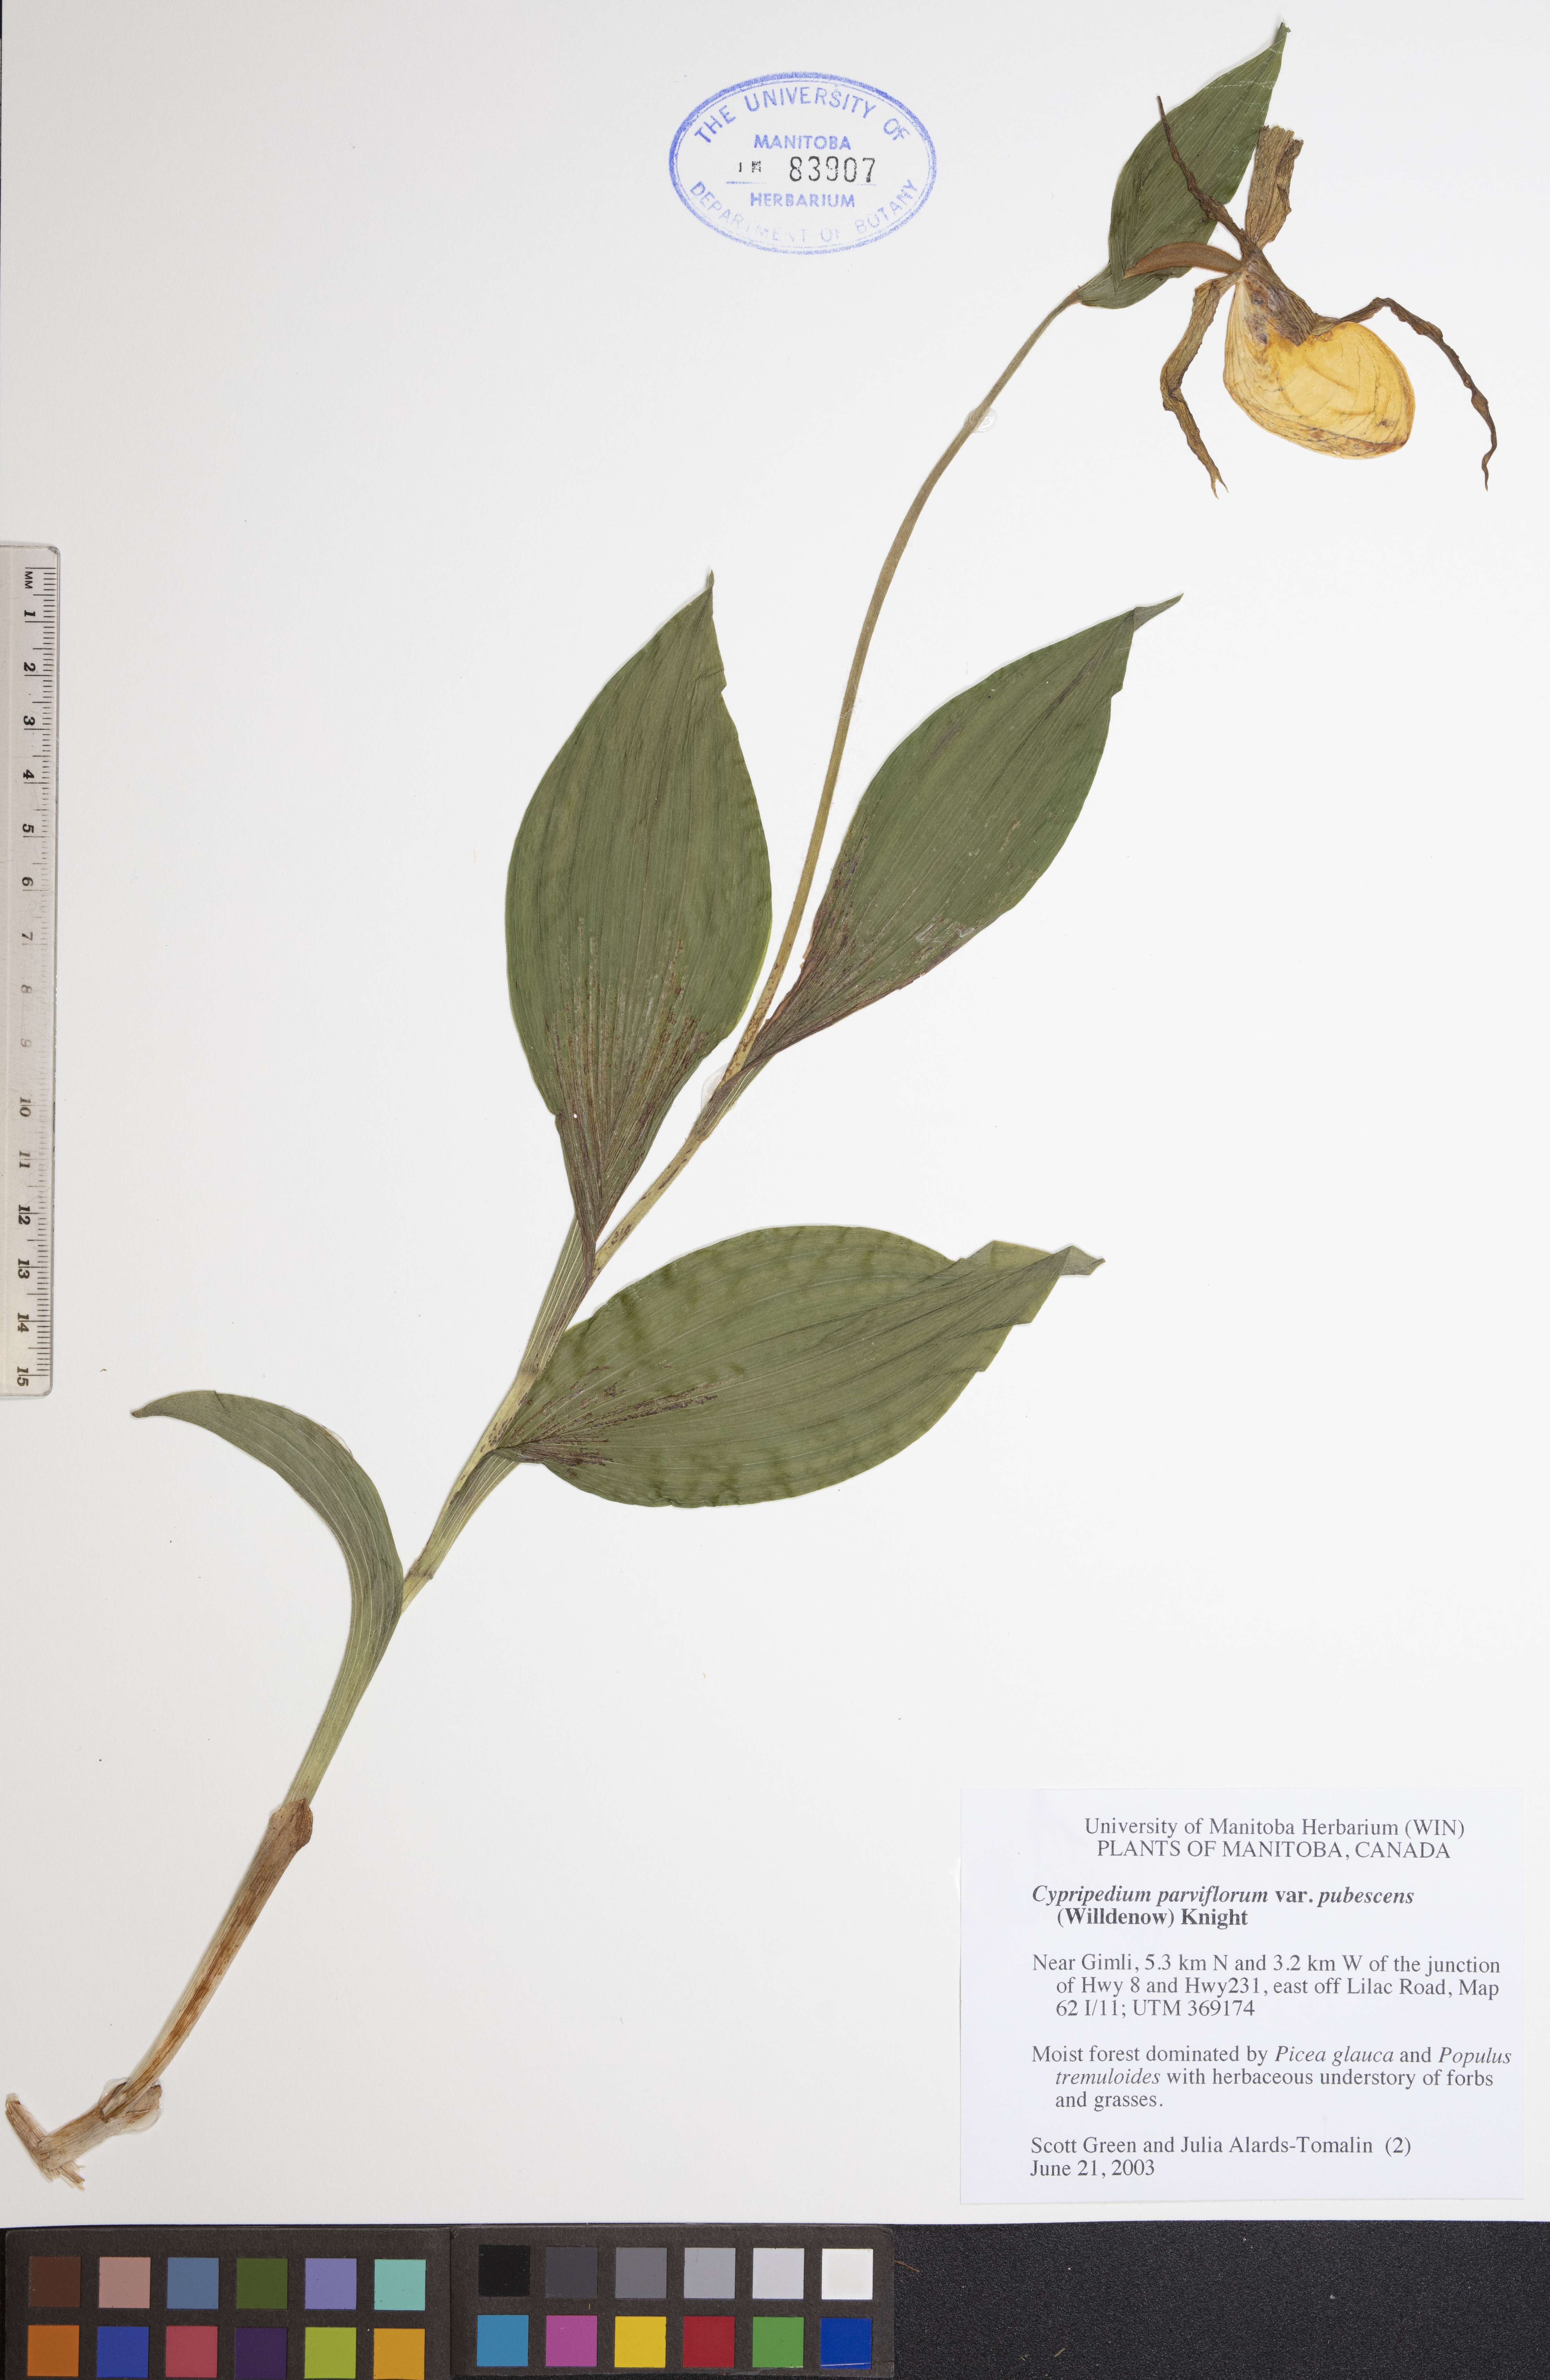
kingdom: Plantae
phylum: Tracheophyta
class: Liliopsida
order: Asparagales
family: Orchidaceae
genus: Cypripedium
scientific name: Cypripedium parviflorum
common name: American yellow lady's-slipper
